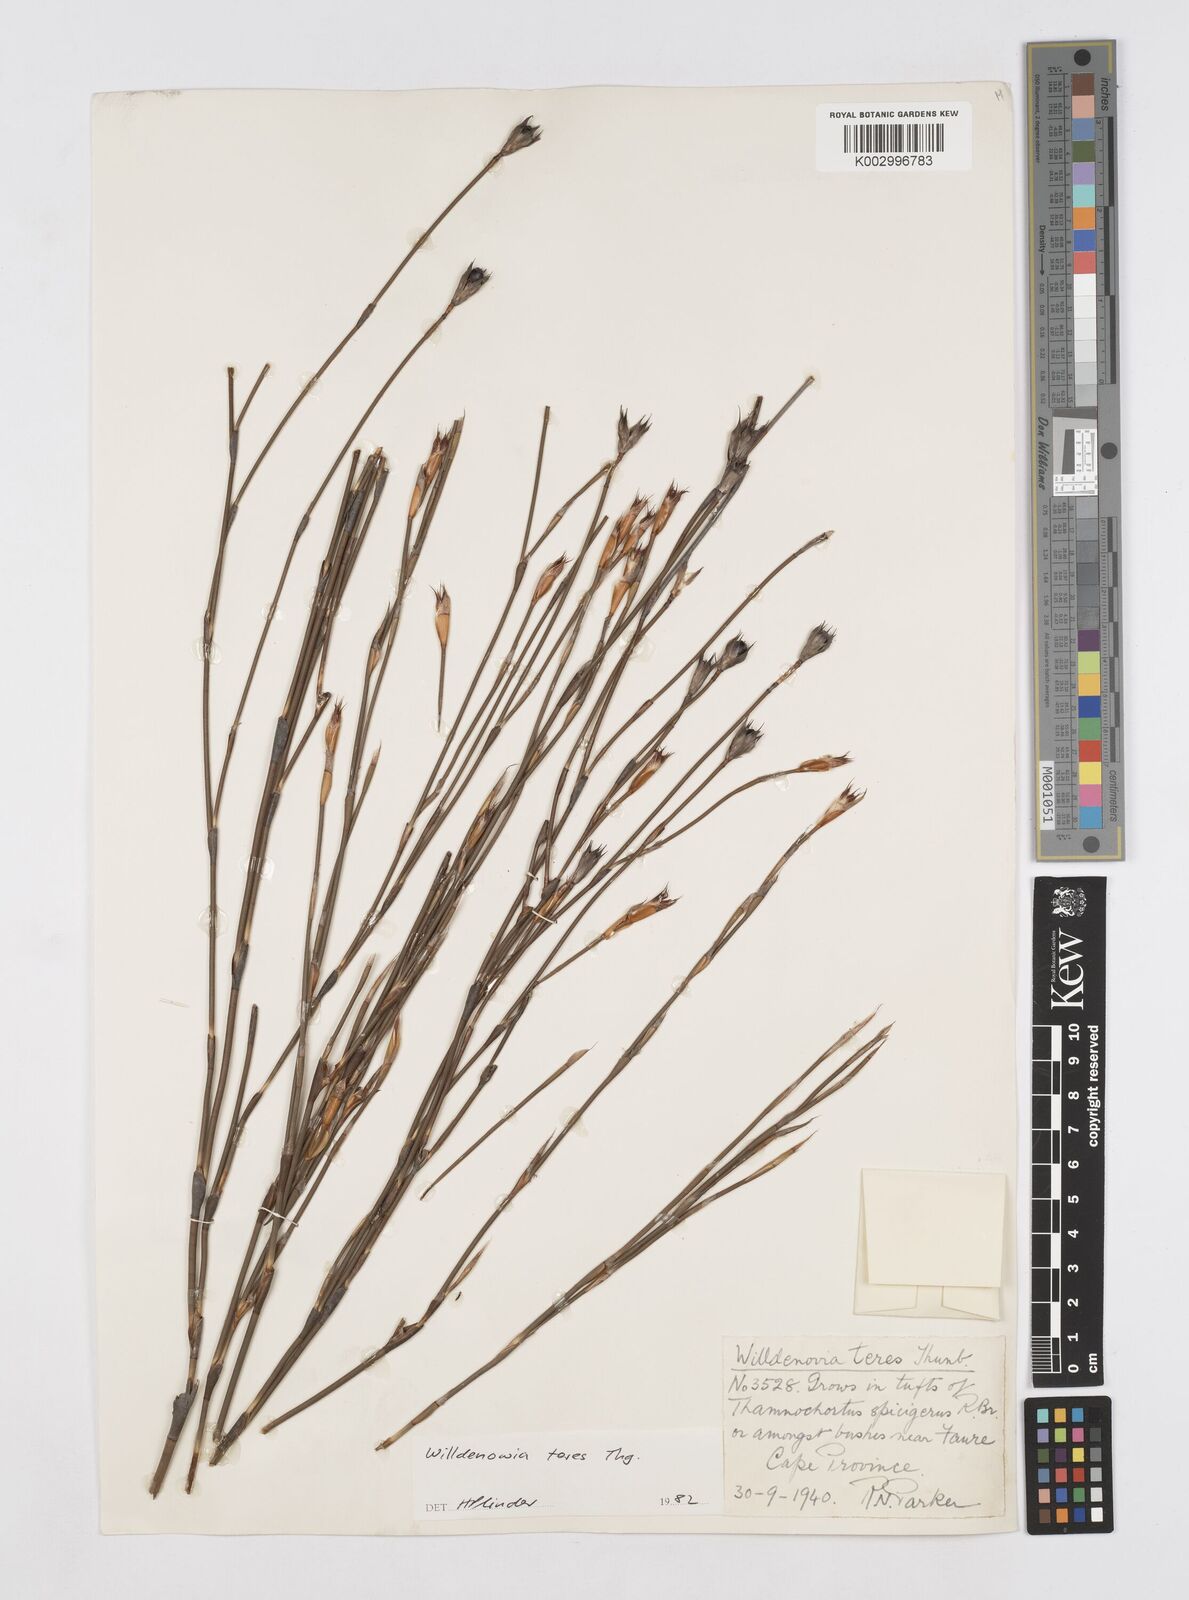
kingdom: Plantae
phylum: Tracheophyta
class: Liliopsida
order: Poales
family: Restionaceae
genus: Willdenowia
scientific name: Willdenowia teres
